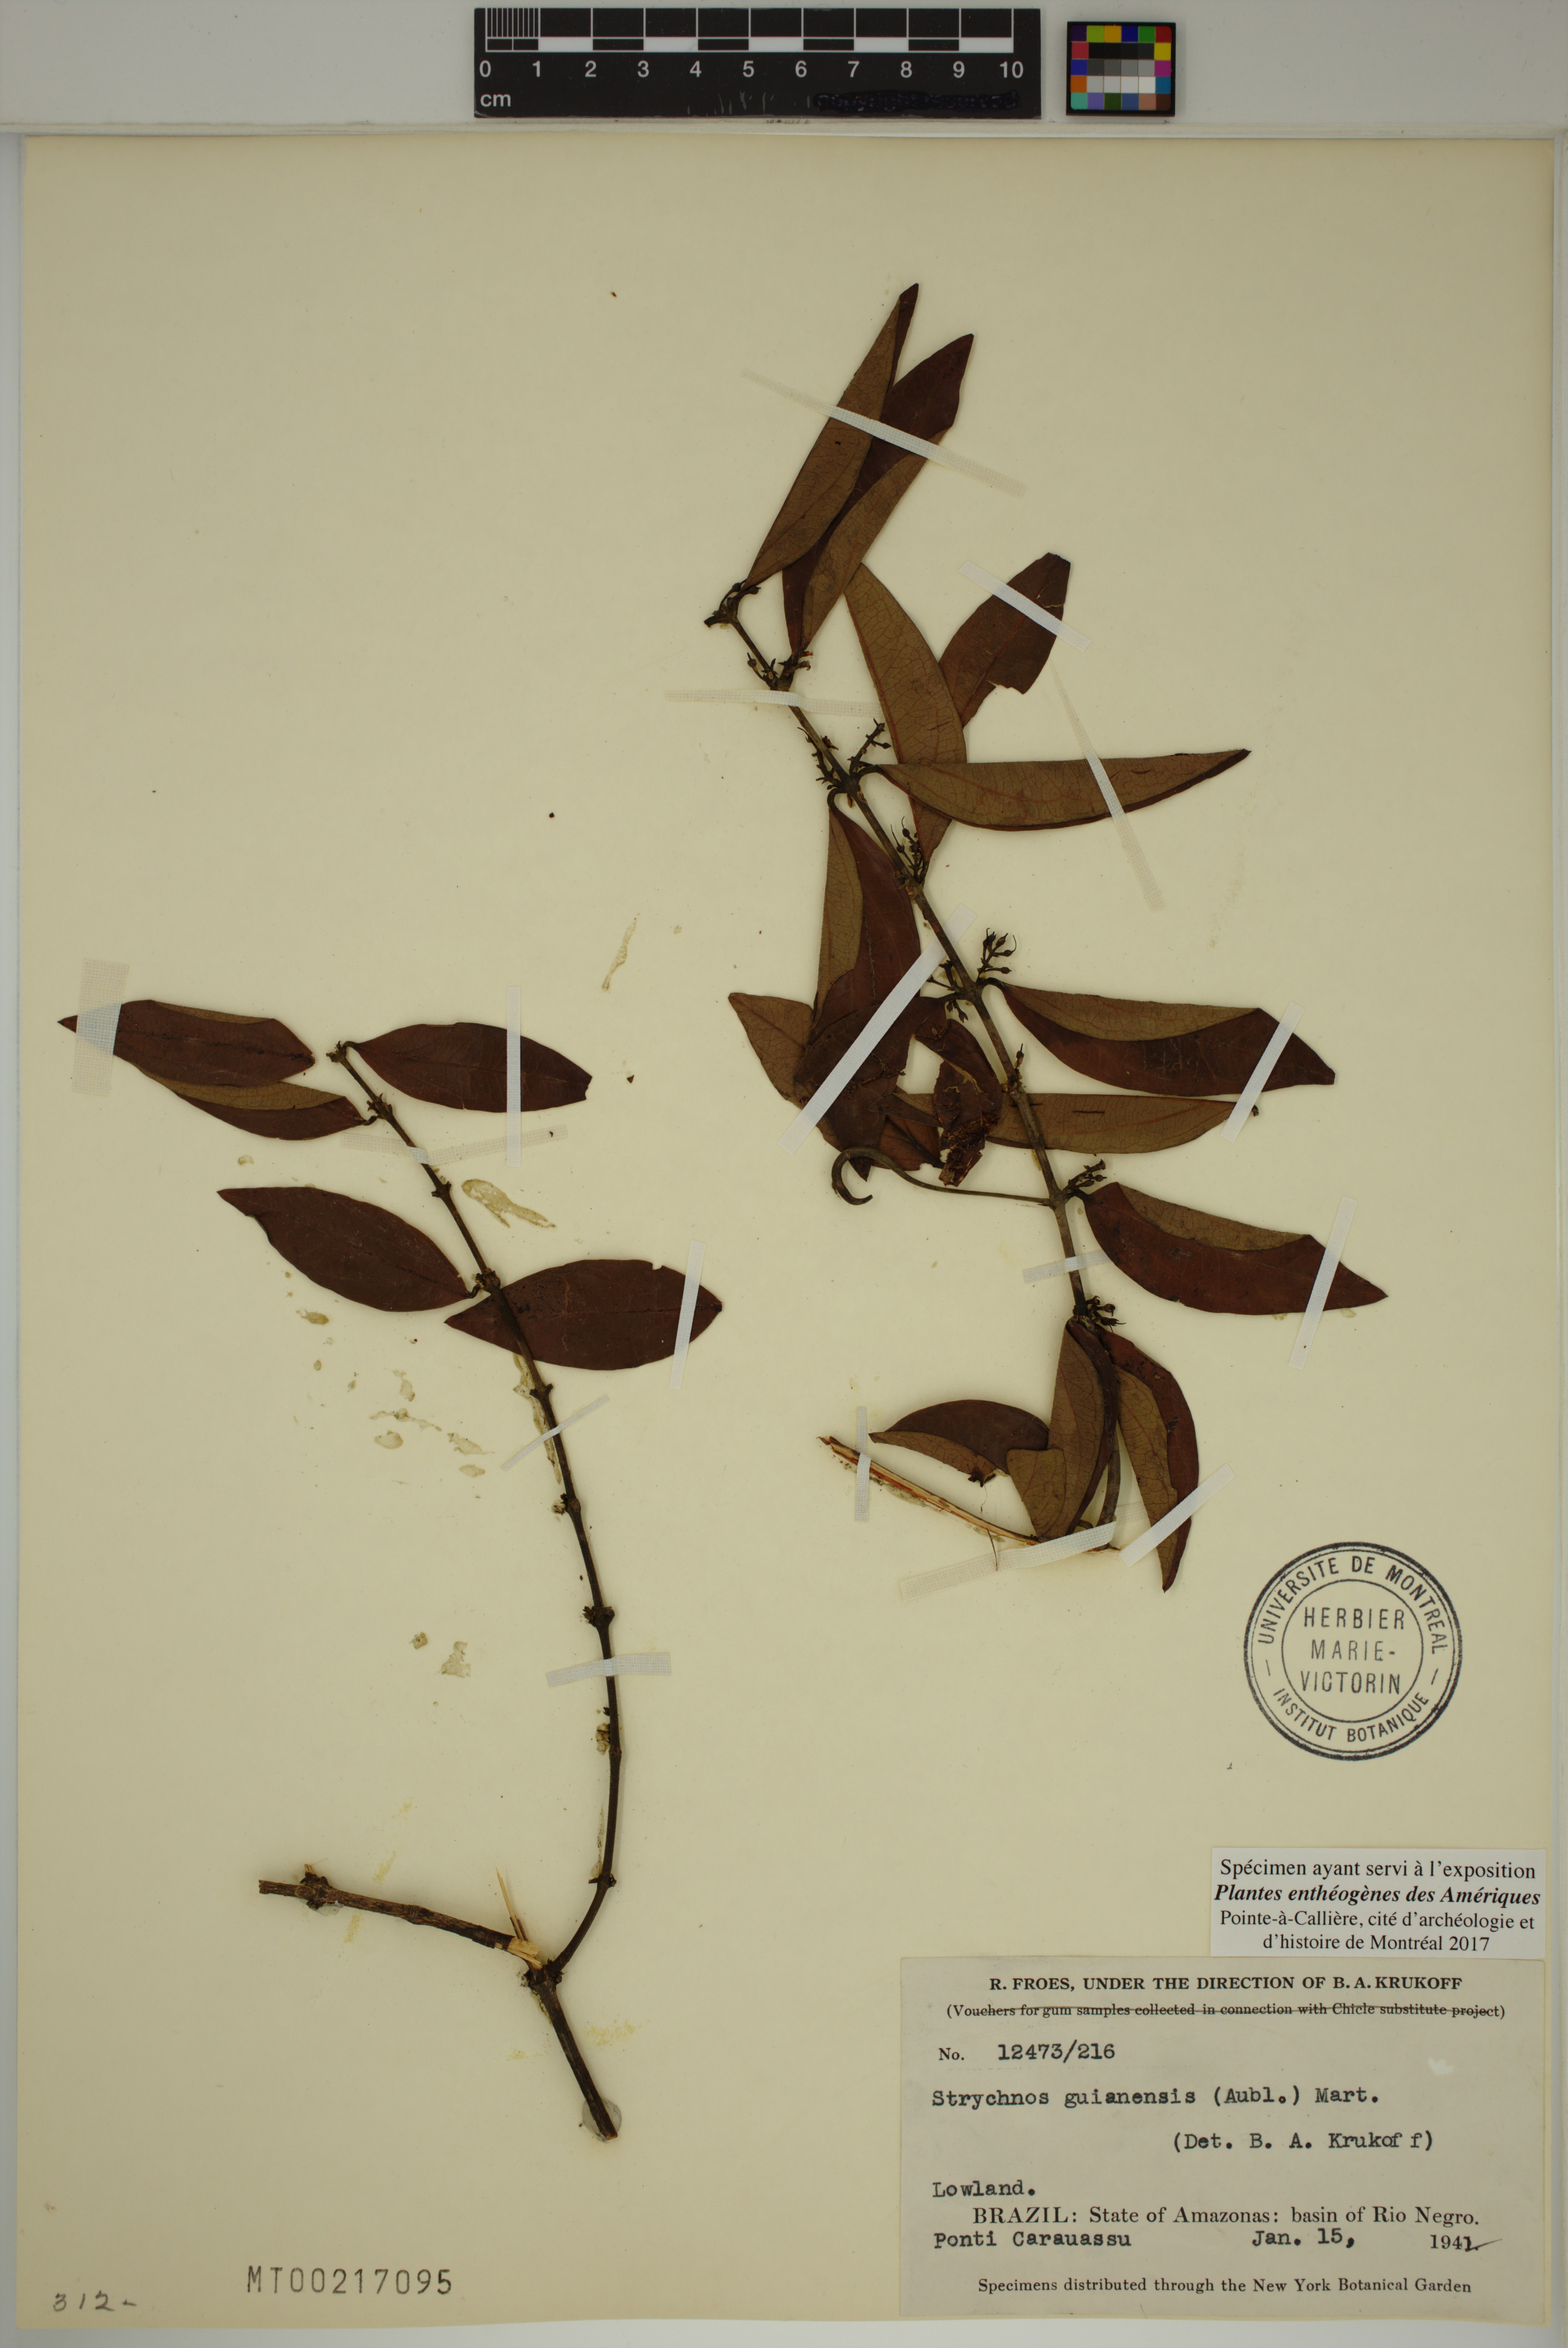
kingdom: Plantae
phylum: Tracheophyta
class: Magnoliopsida
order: Gentianales
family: Loganiaceae
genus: Strychnos
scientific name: Strychnos guianensis
